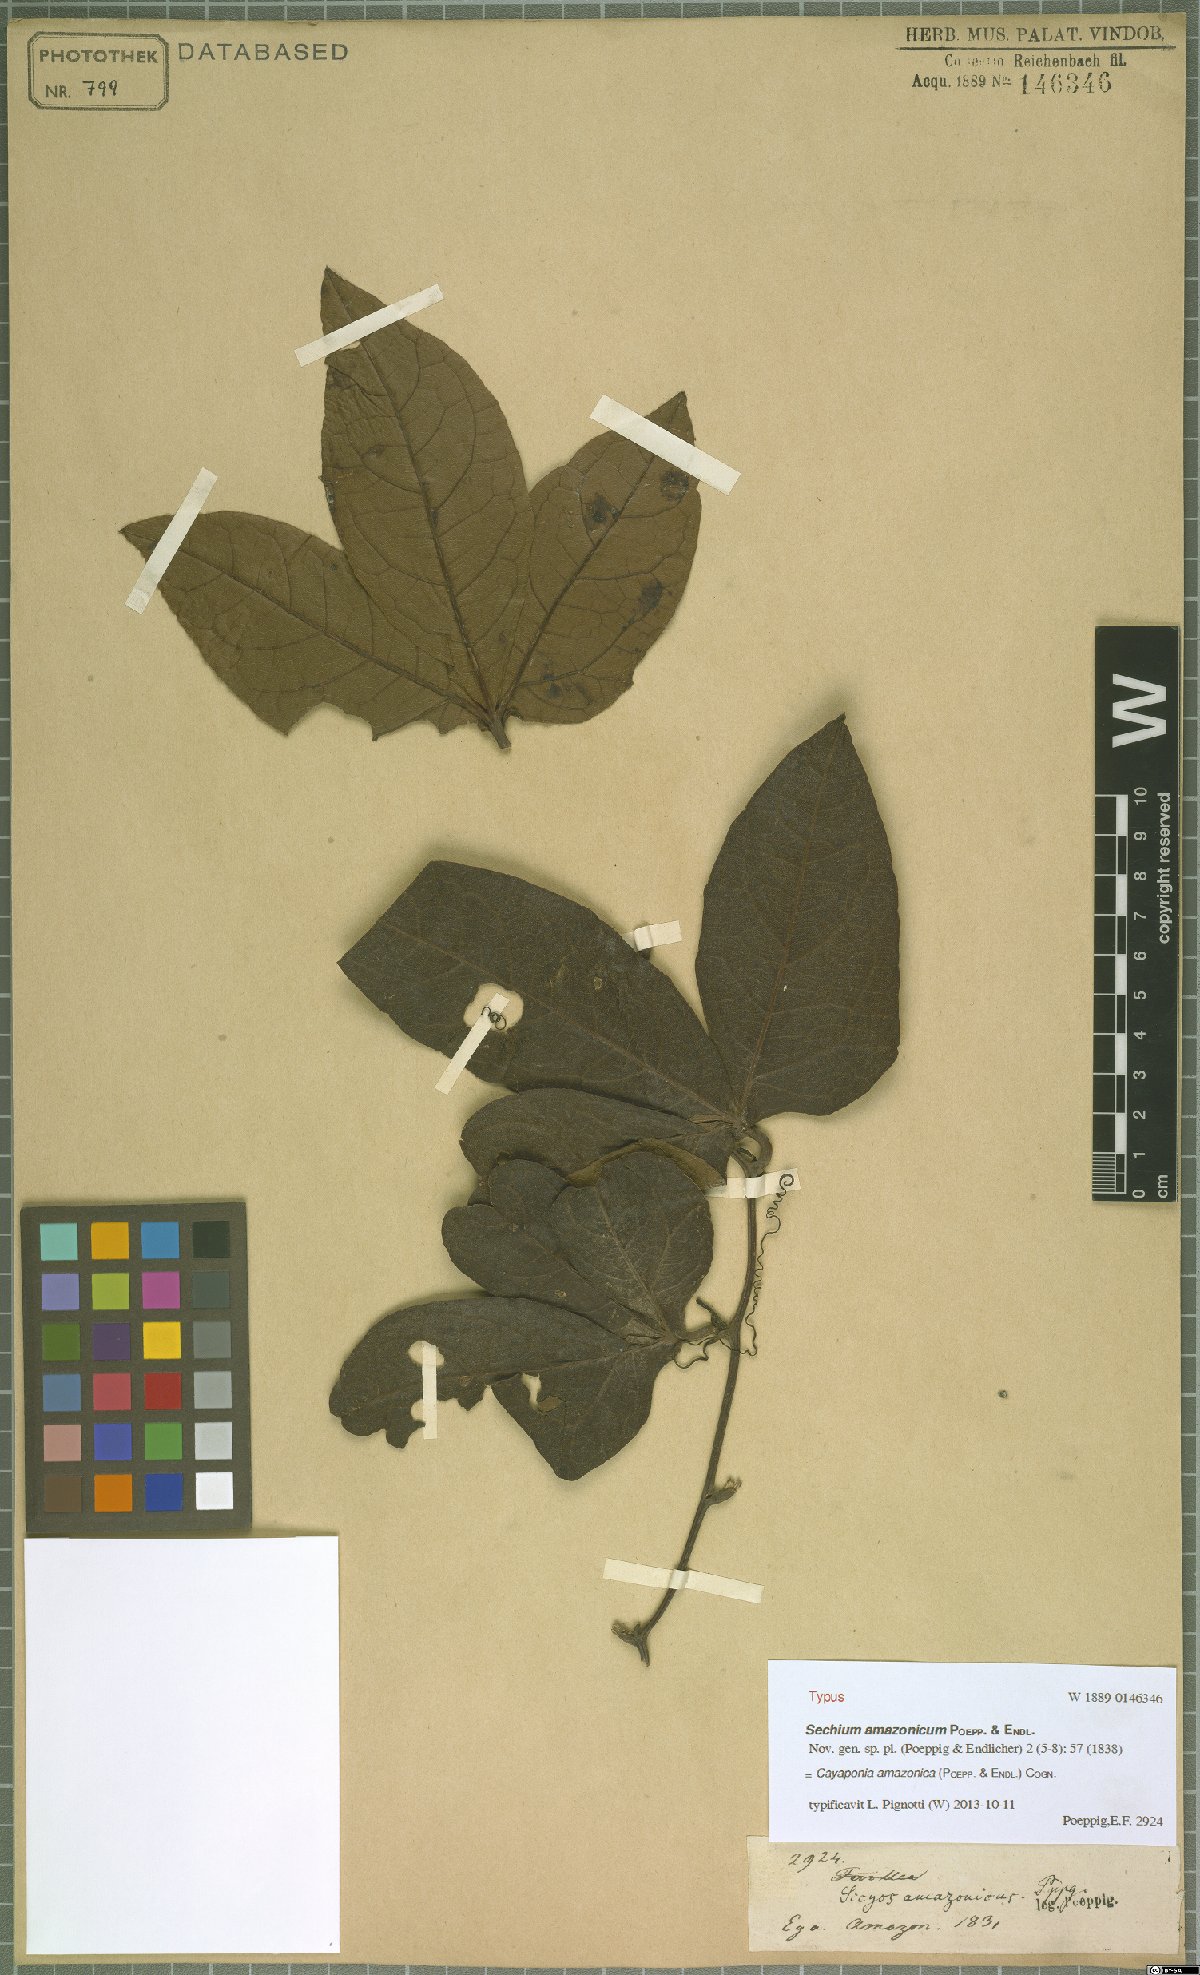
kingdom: Plantae
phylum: Tracheophyta
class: Magnoliopsida
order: Cucurbitales
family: Cucurbitaceae
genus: Cayaponia
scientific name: Cayaponia amazonica
